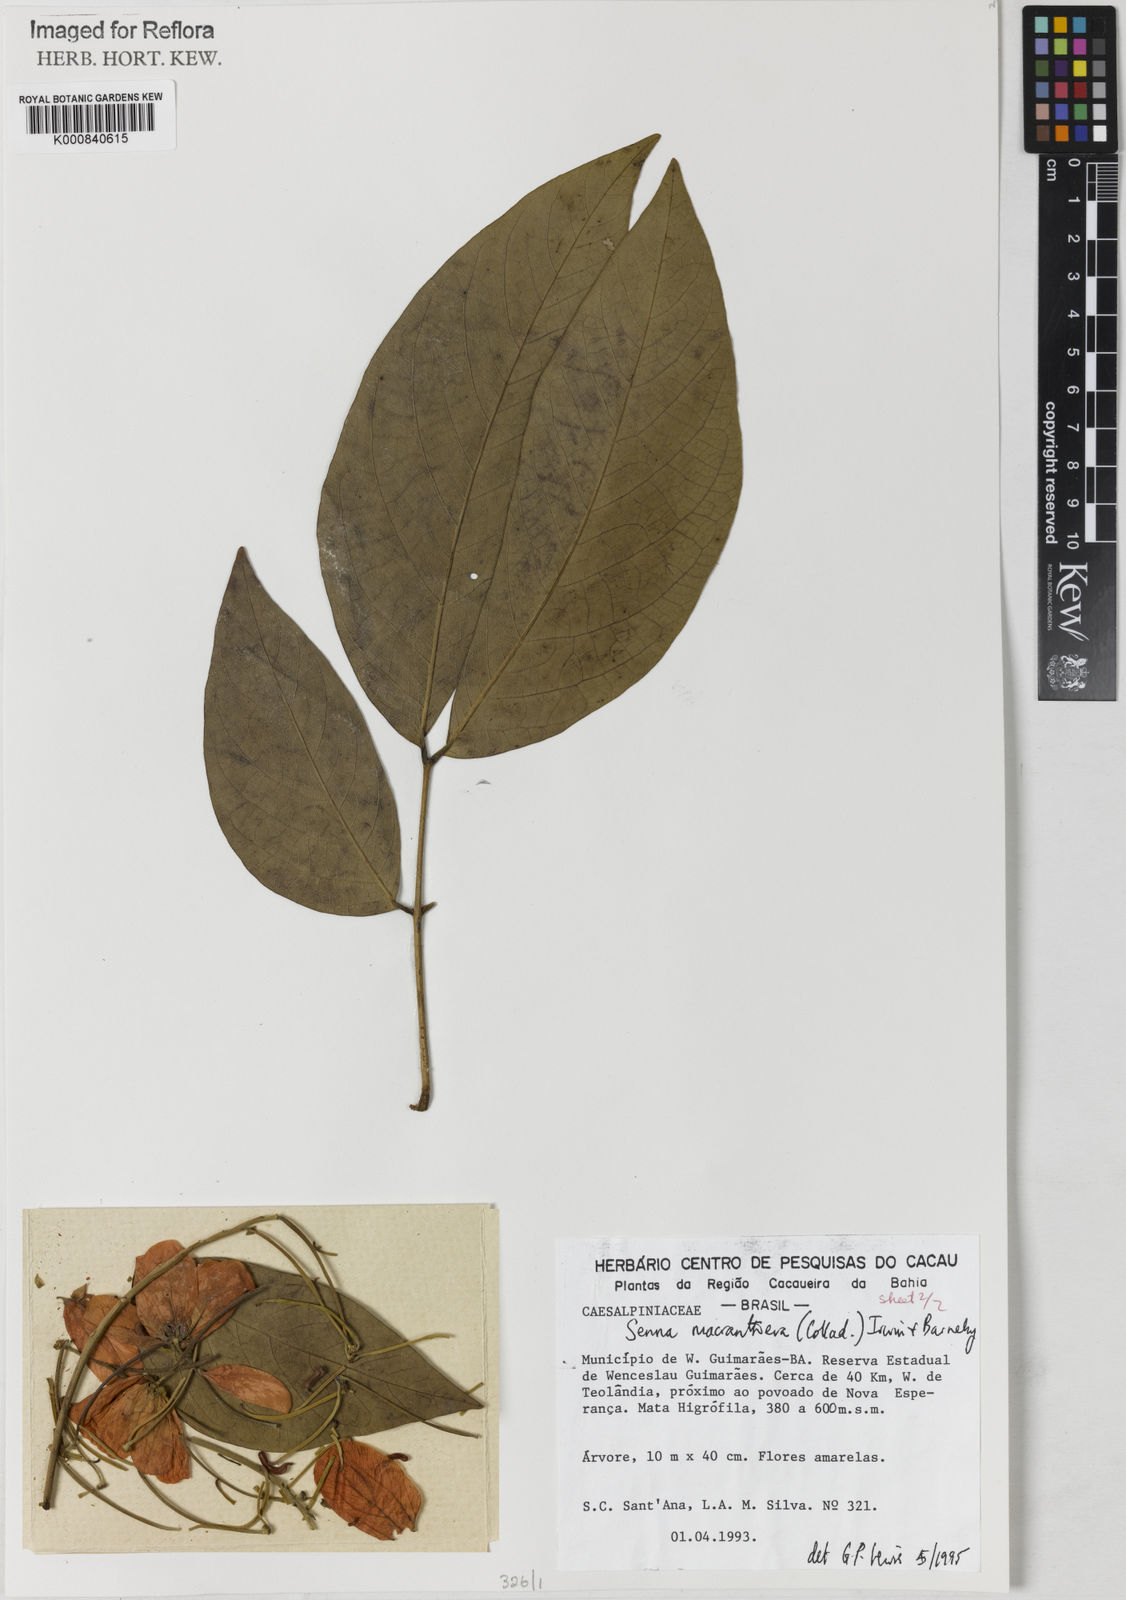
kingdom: Plantae
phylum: Tracheophyta
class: Magnoliopsida
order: Fabales
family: Fabaceae
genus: Senna
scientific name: Senna macranthera
